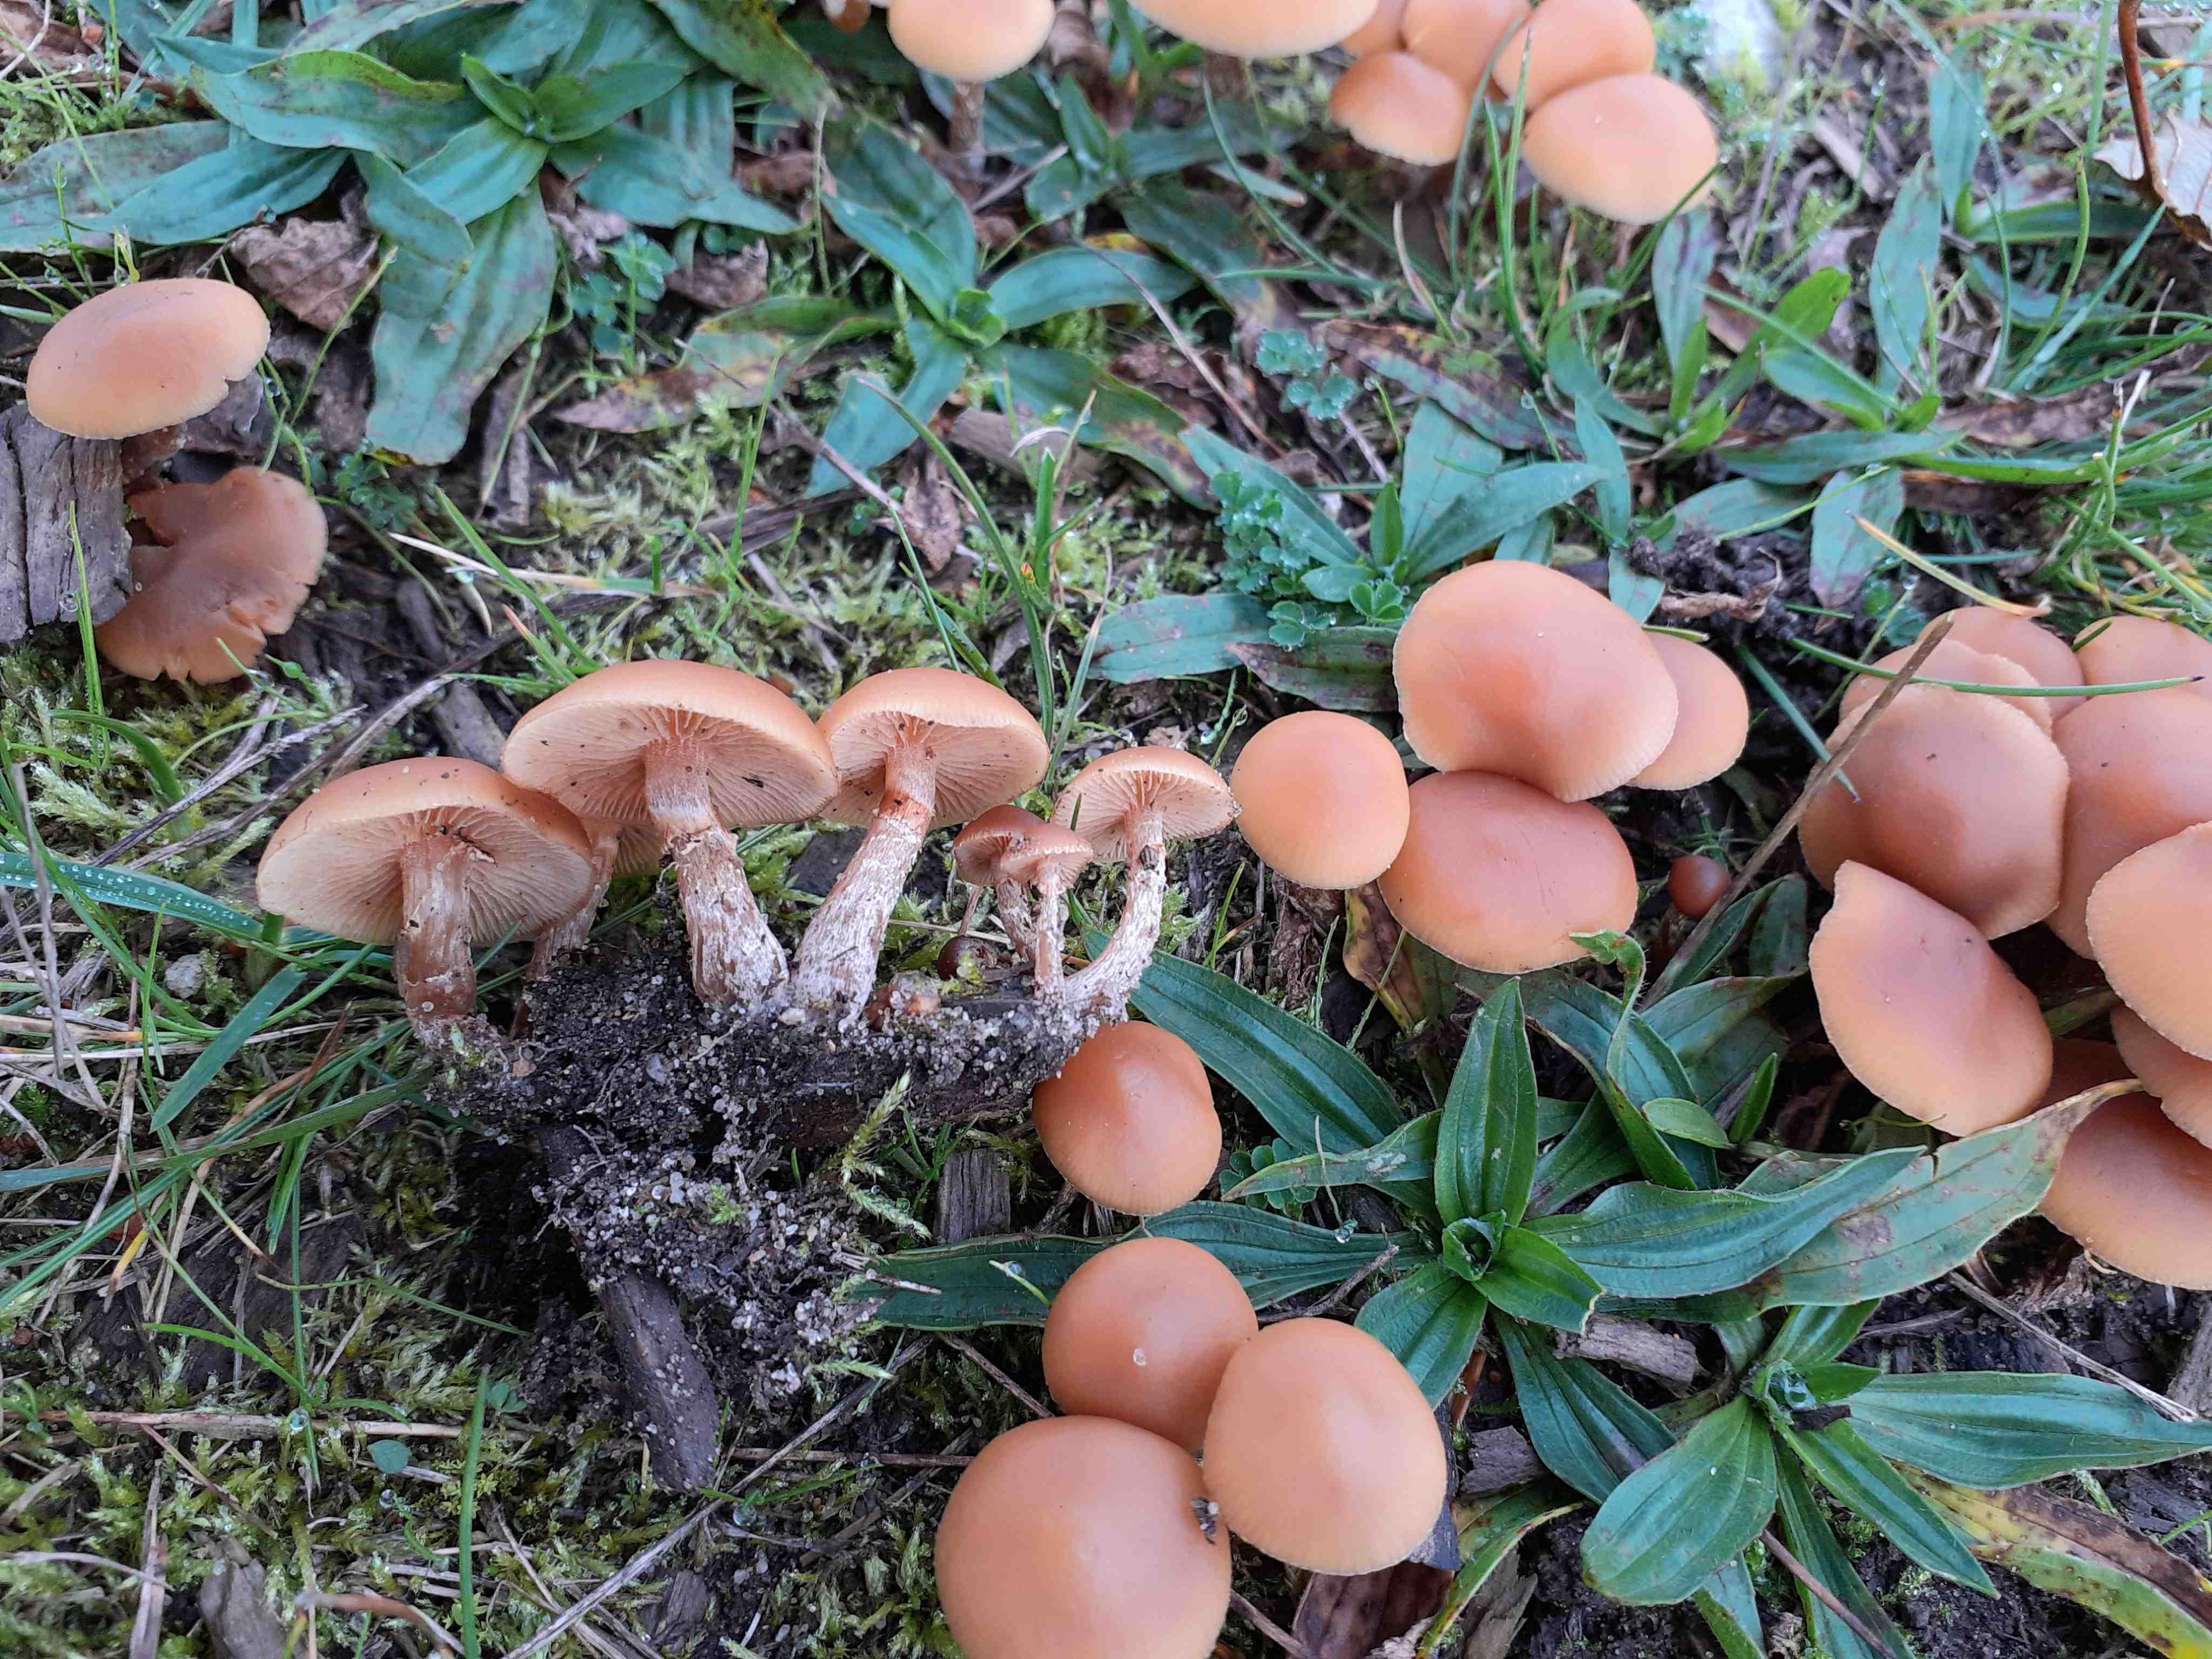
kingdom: Fungi
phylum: Basidiomycota
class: Agaricomycetes
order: Agaricales
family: Hymenogastraceae
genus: Galerina
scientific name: Galerina marginata
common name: randbæltet hjelmhat
